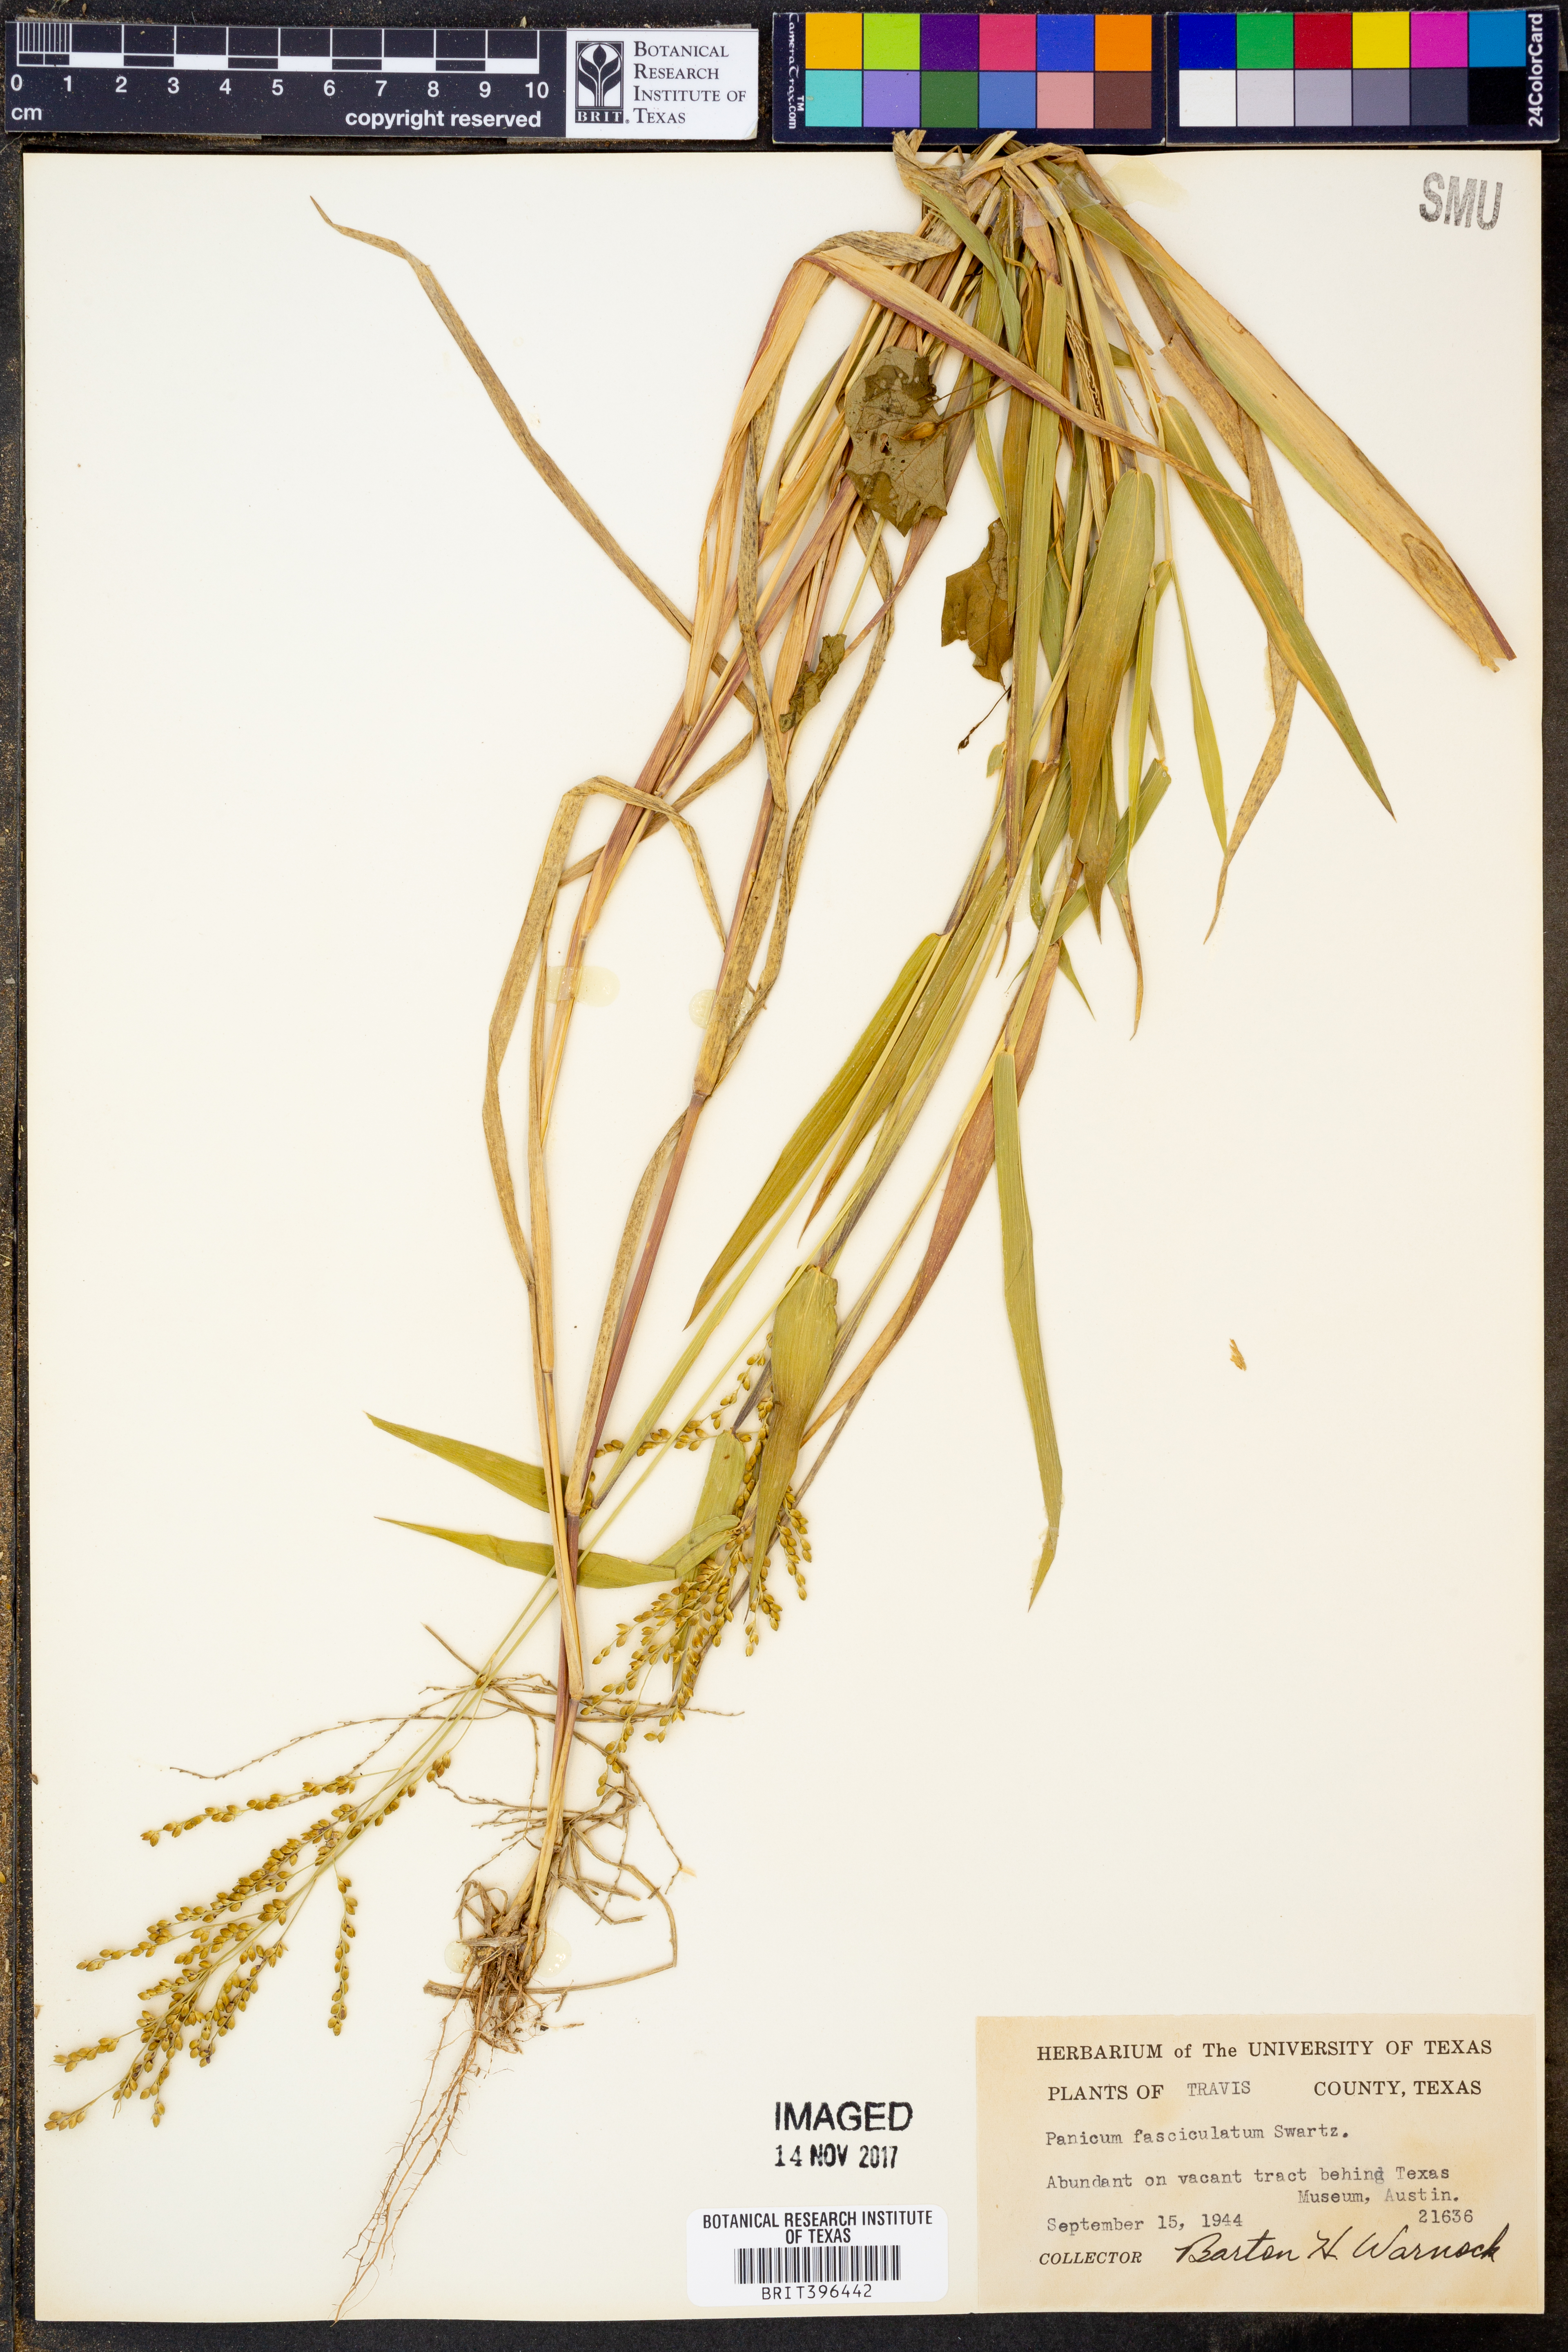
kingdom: Plantae
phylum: Tracheophyta
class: Liliopsida
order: Poales
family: Poaceae
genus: Urochloa
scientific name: Urochloa fusca
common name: Browntop signal grass
